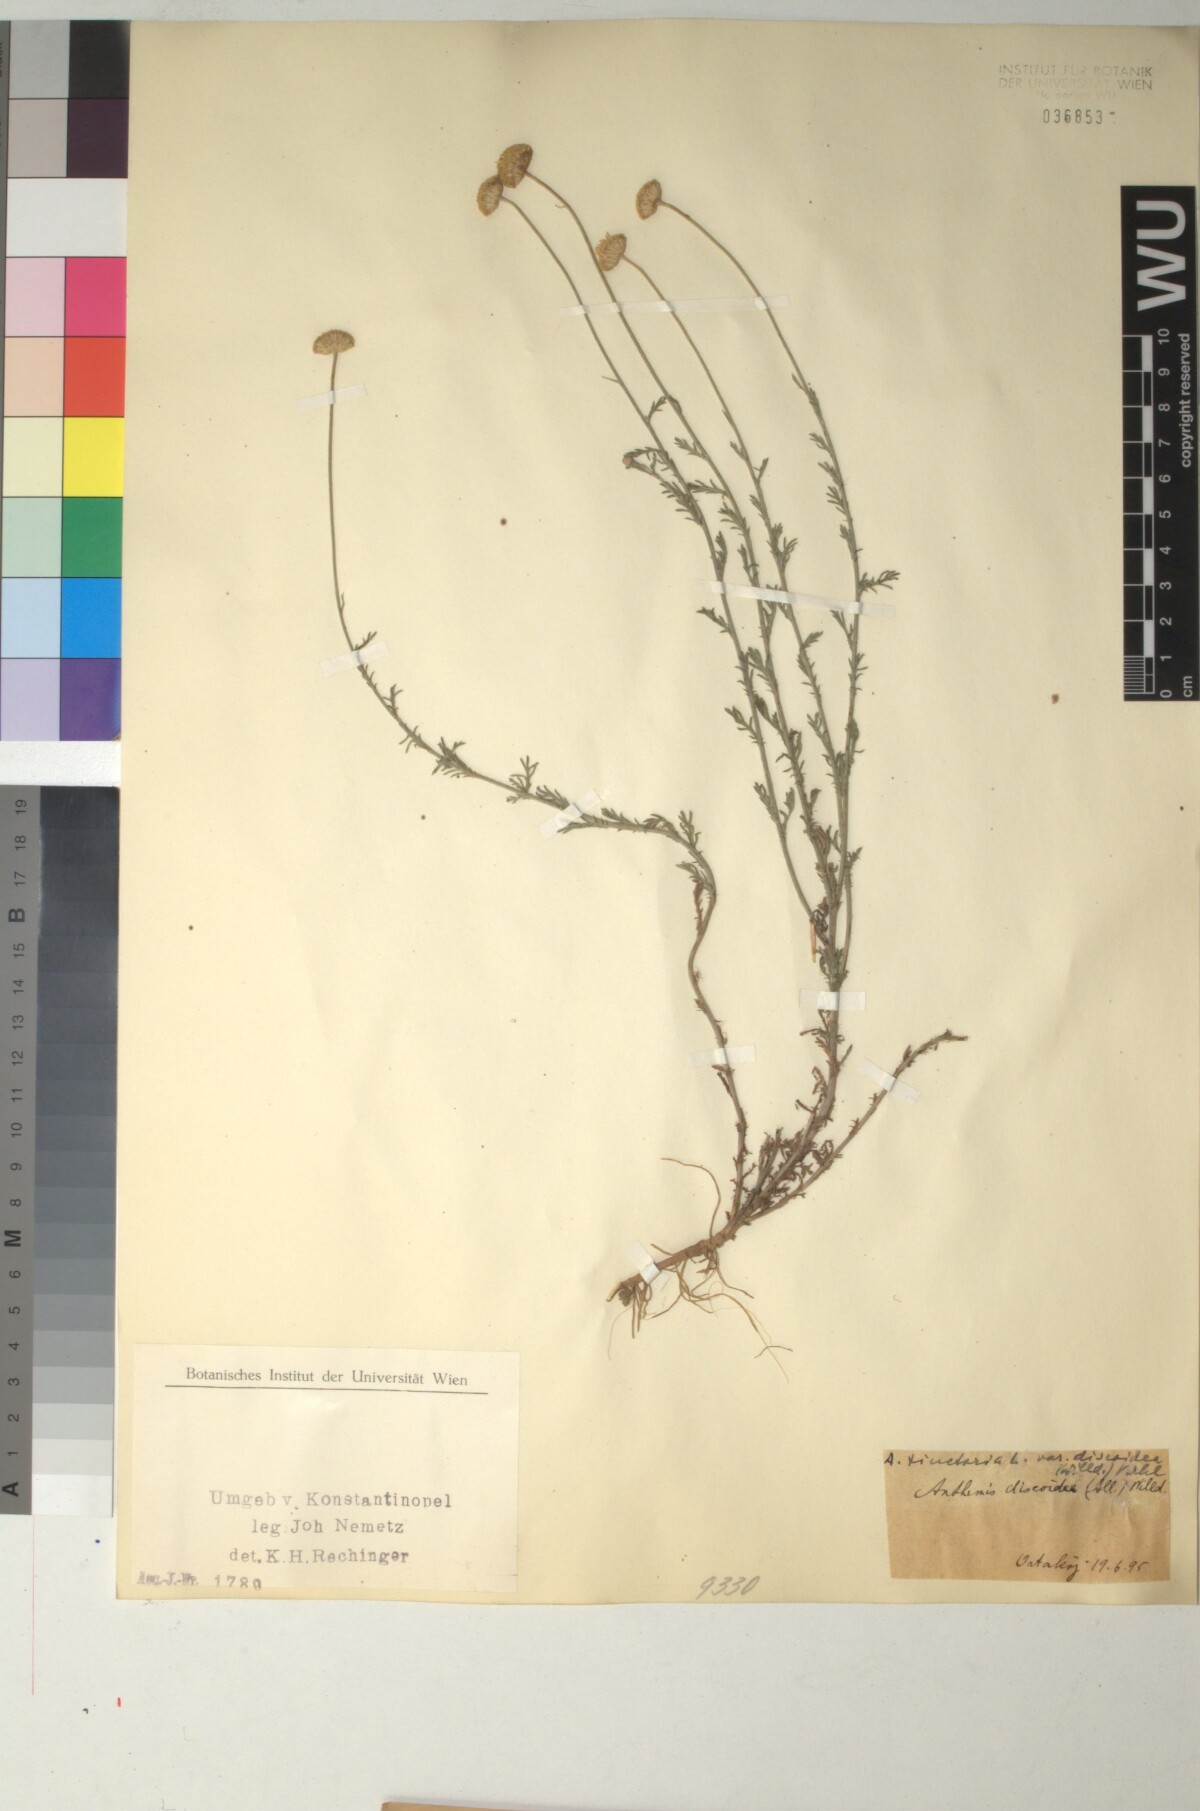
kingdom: Plantae
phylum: Tracheophyta
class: Magnoliopsida
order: Asterales
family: Asteraceae
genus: Cota
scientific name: Cota tinctoria
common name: Golden chamomile
